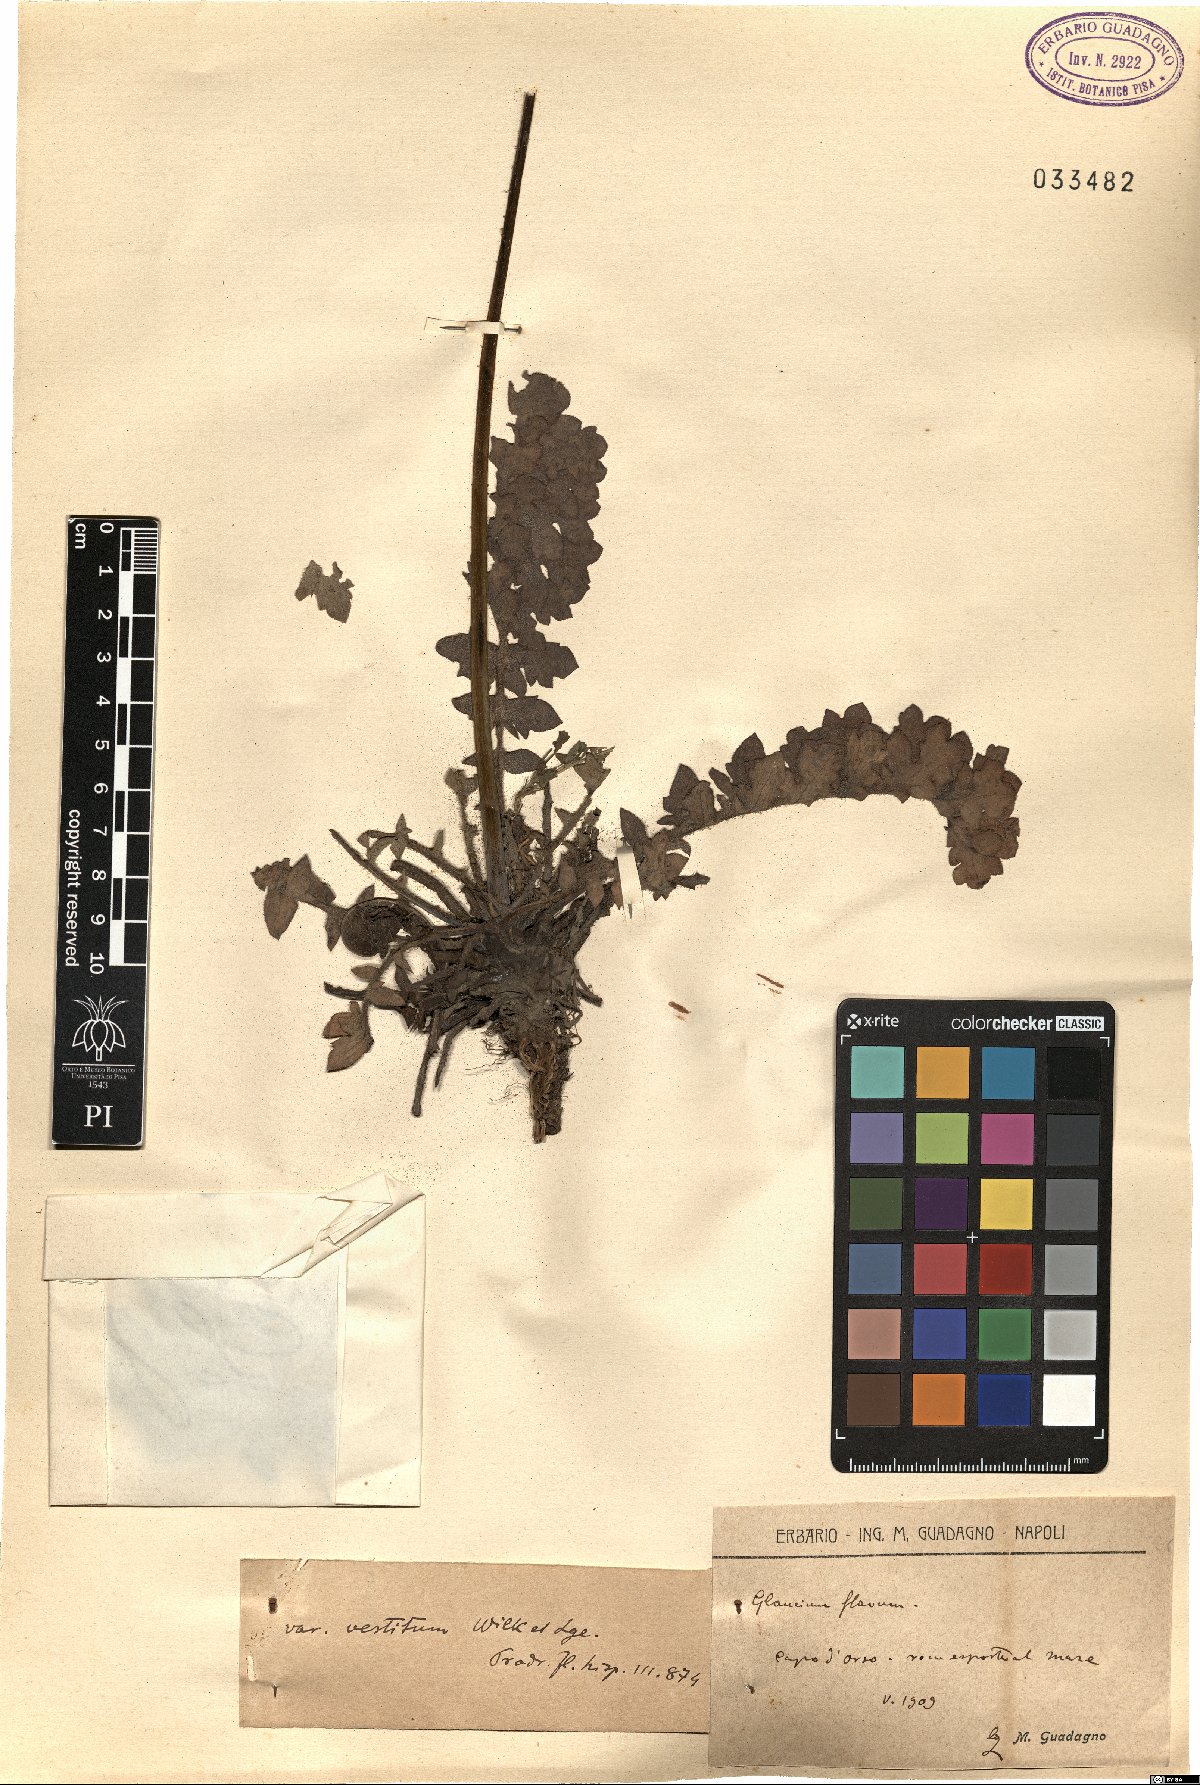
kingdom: Plantae
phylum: Tracheophyta
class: Magnoliopsida
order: Ranunculales
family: Papaveraceae
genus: Glaucium
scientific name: Glaucium flavum
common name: Yellow horned-poppy
